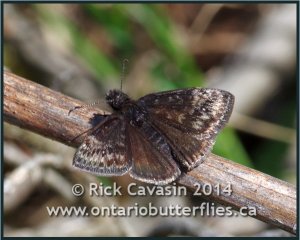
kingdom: Animalia
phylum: Arthropoda
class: Insecta
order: Lepidoptera
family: Hesperiidae
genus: Gesta
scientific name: Gesta
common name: Columbine Duskywing
